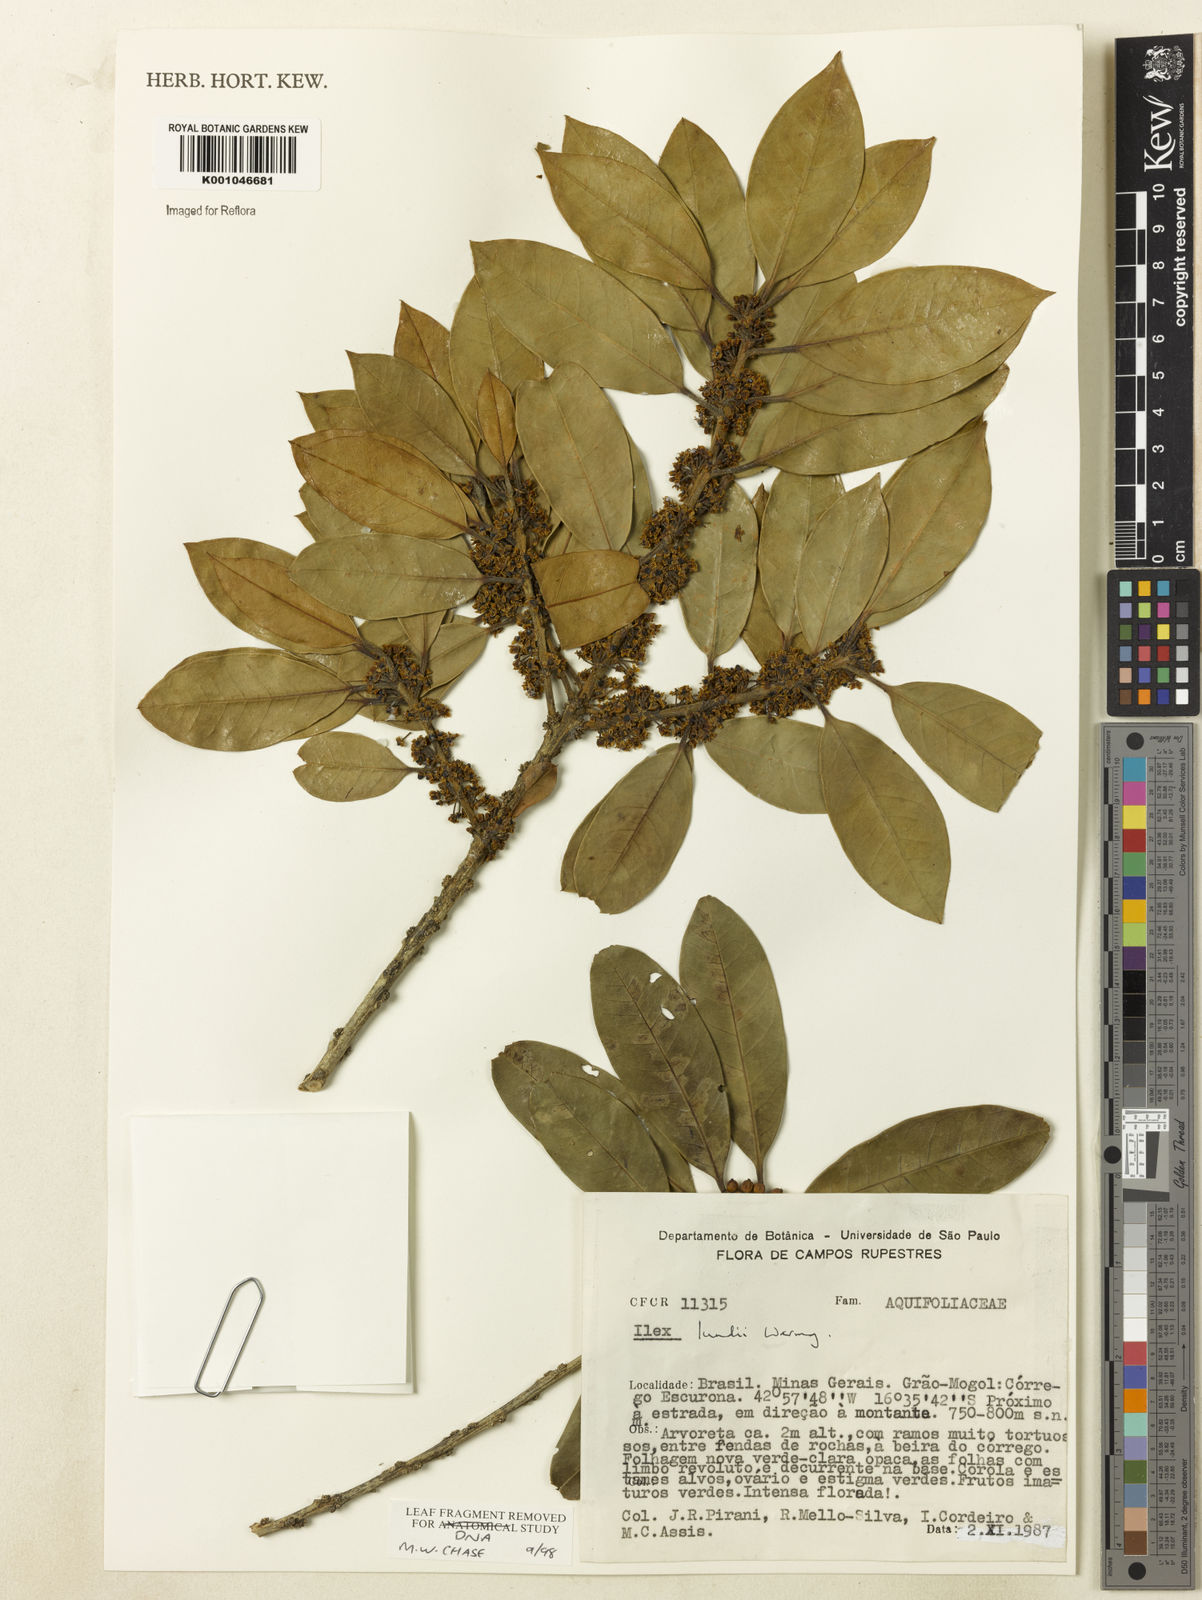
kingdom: Plantae
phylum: Tracheophyta
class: Magnoliopsida
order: Aquifoliales
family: Aquifoliaceae
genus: Ilex
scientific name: Ilex lundii
